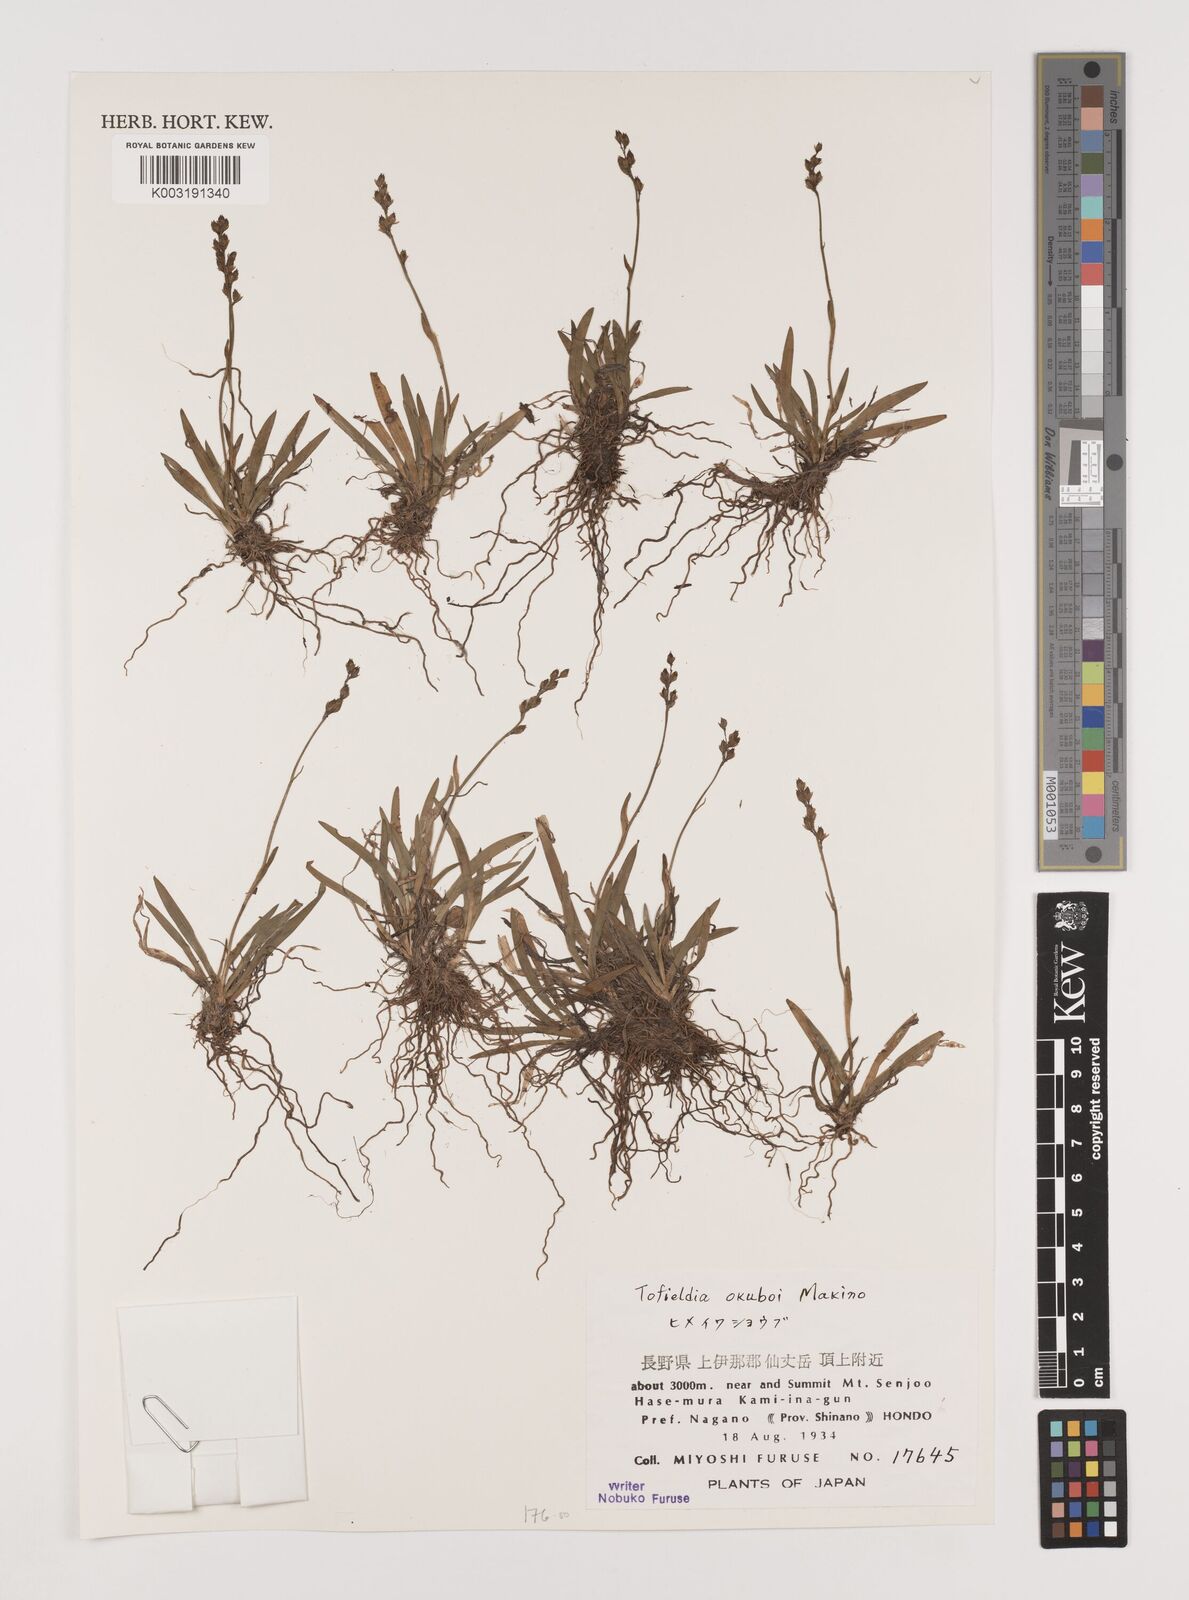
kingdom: Plantae
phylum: Tracheophyta
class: Liliopsida
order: Alismatales
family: Tofieldiaceae
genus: Tofieldia
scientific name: Tofieldia okuboi
